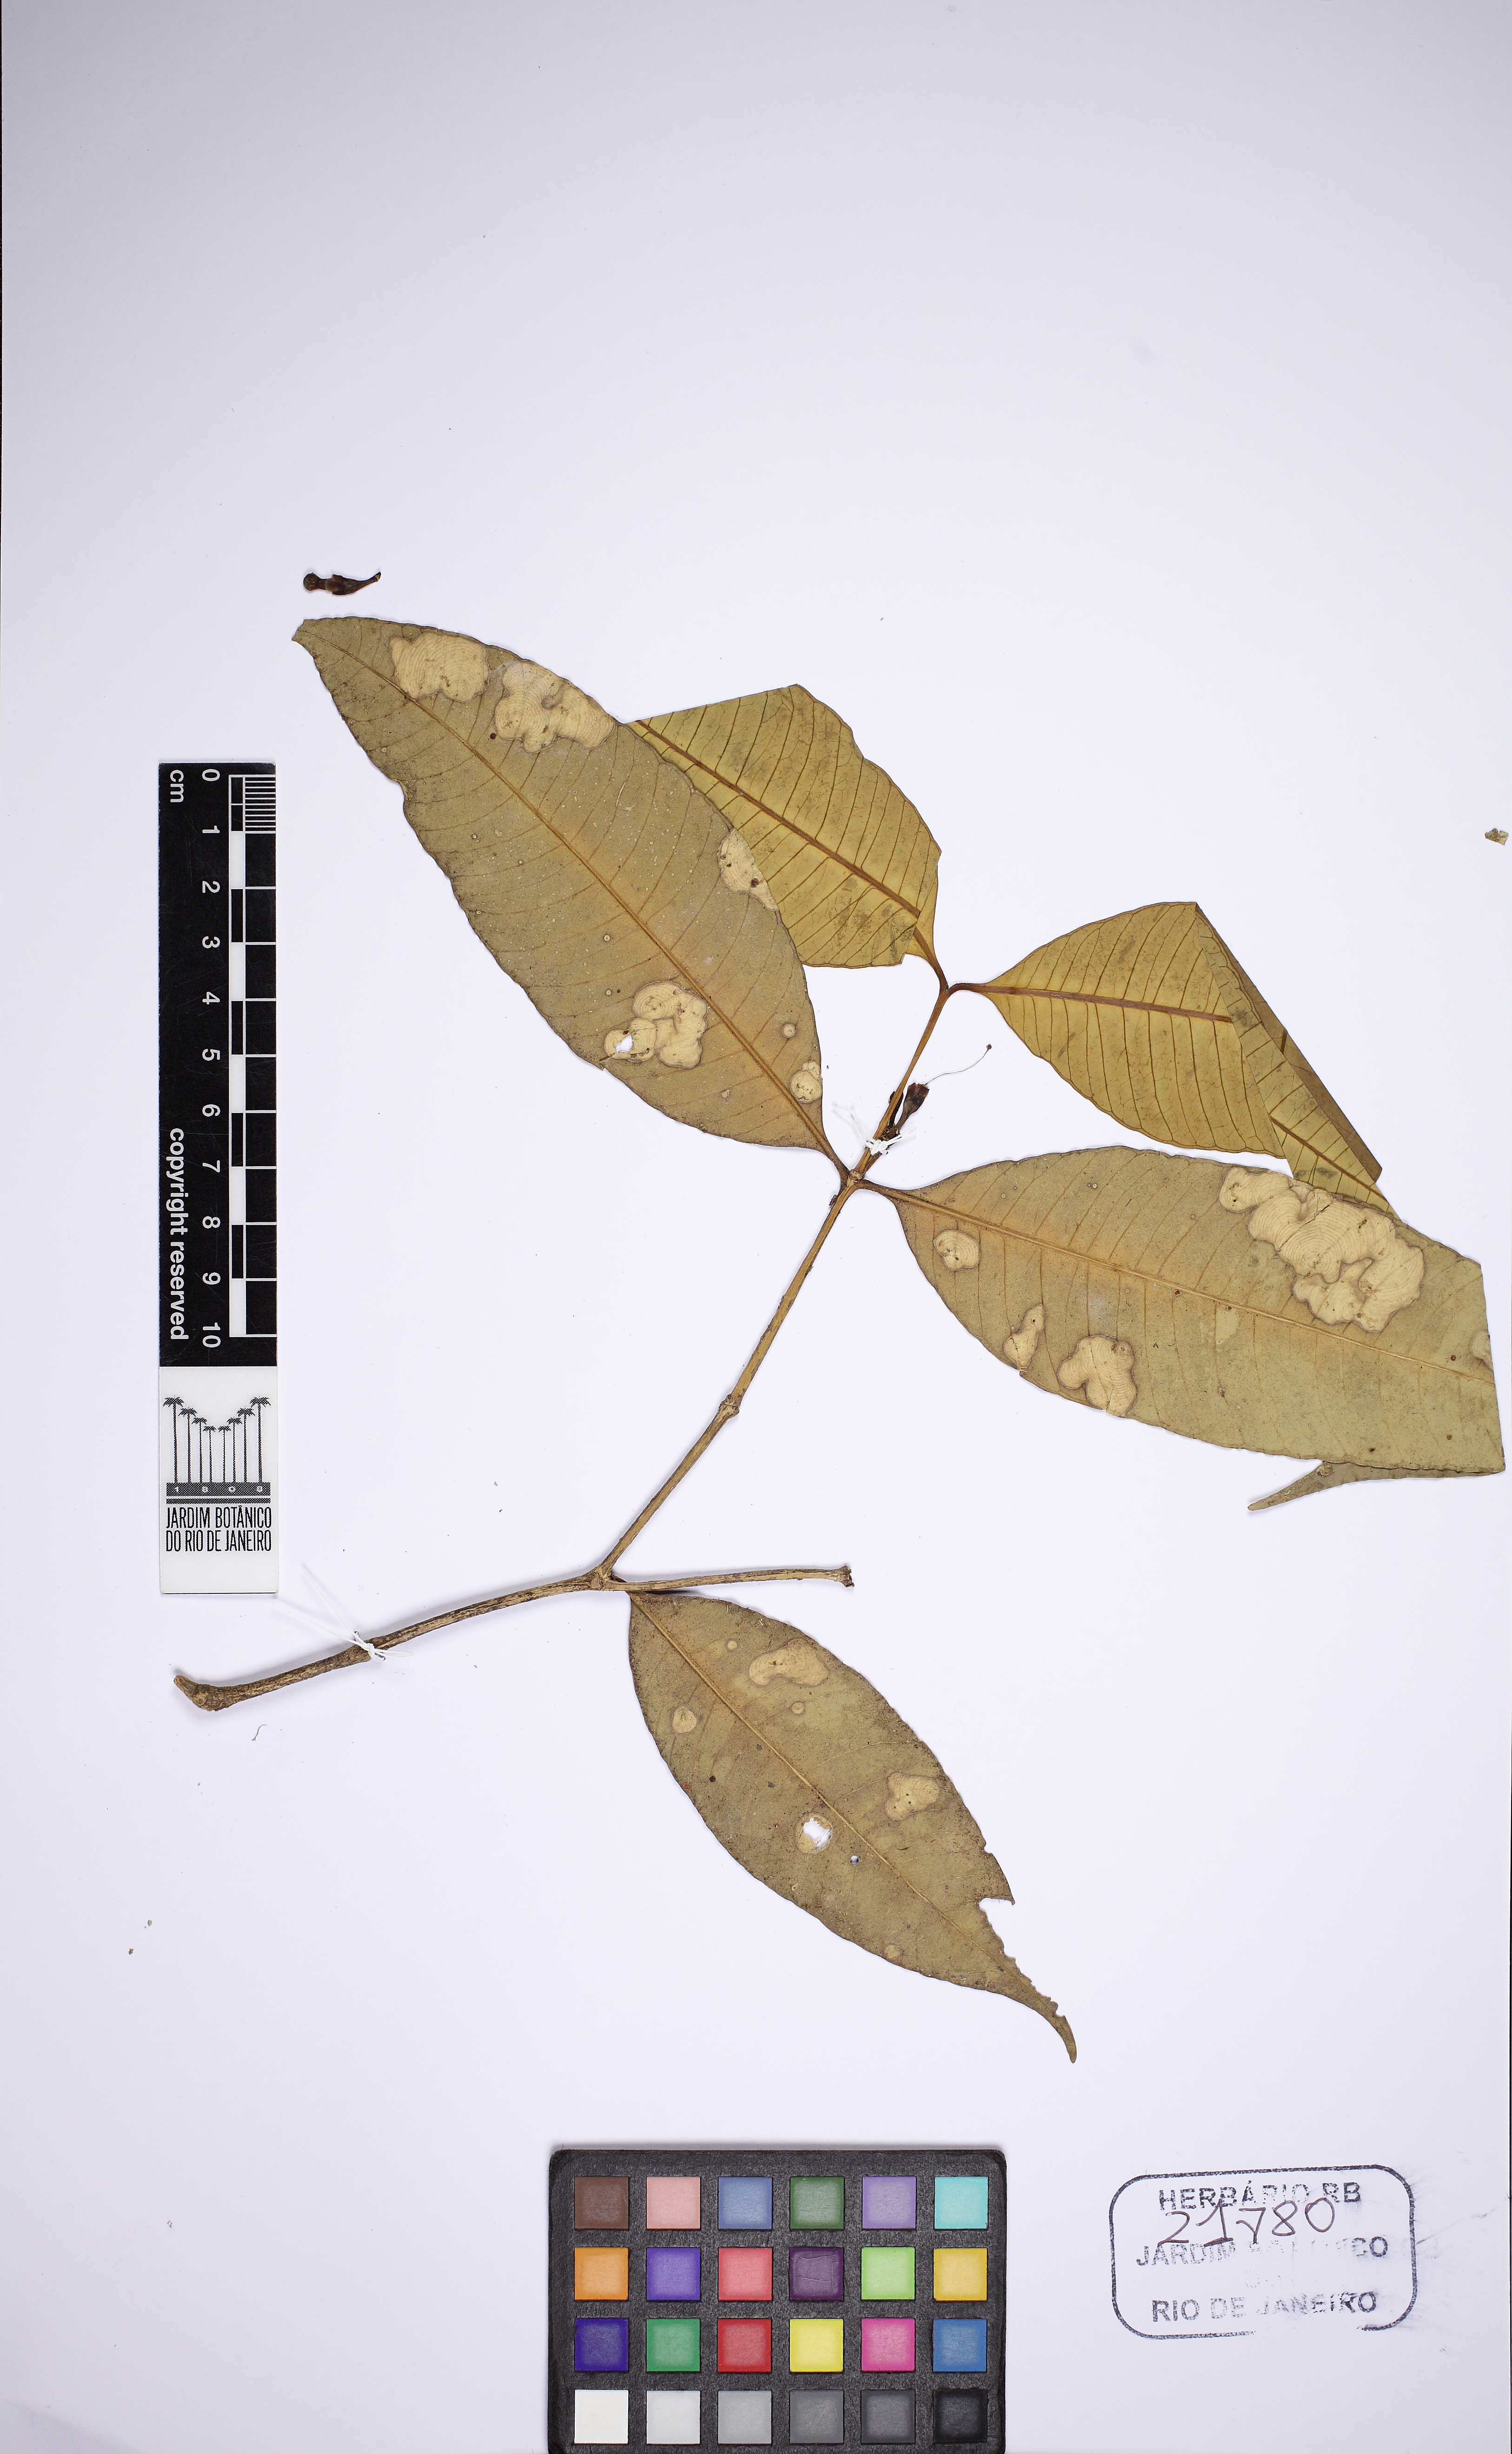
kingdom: Plantae
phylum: Tracheophyta
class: Magnoliopsida
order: Gentianales
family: Apocynaceae
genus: Tabernaemontana
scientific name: Tabernaemontana undulata
